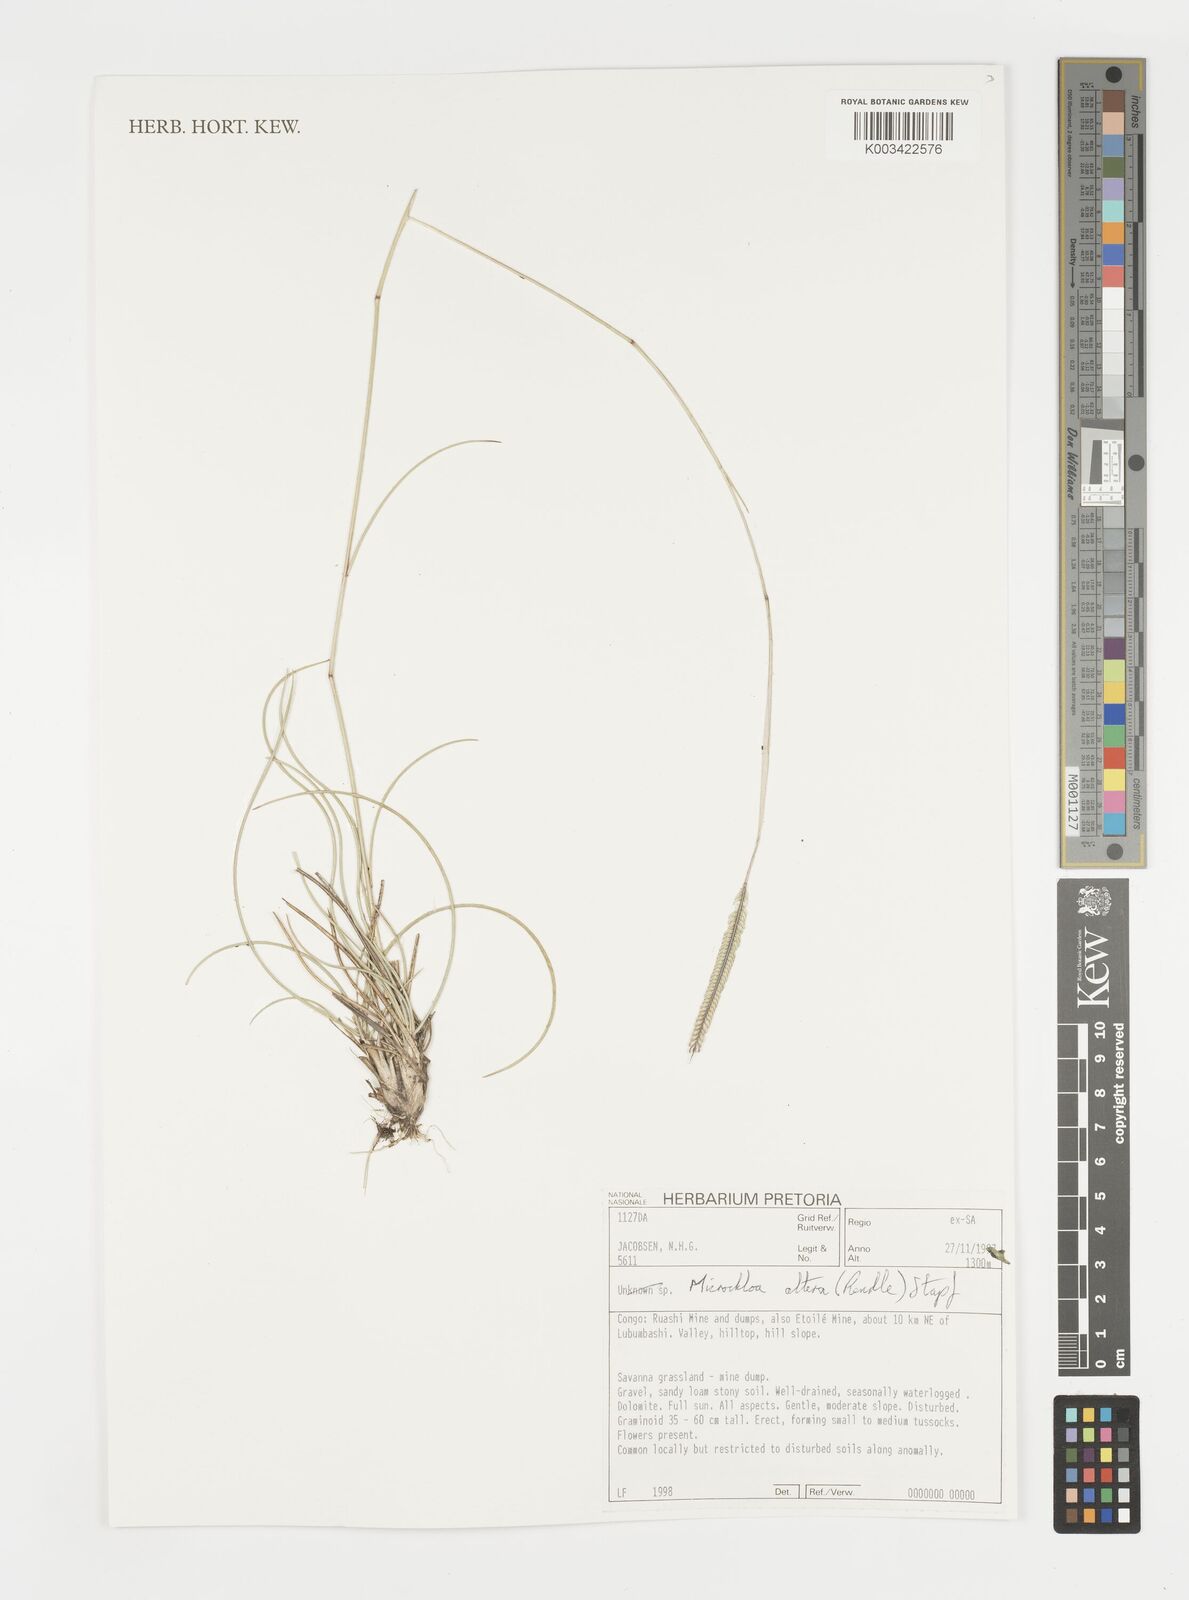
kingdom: Plantae
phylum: Tracheophyta
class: Liliopsida
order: Poales
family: Poaceae
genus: Microchloa
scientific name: Microchloa altera
